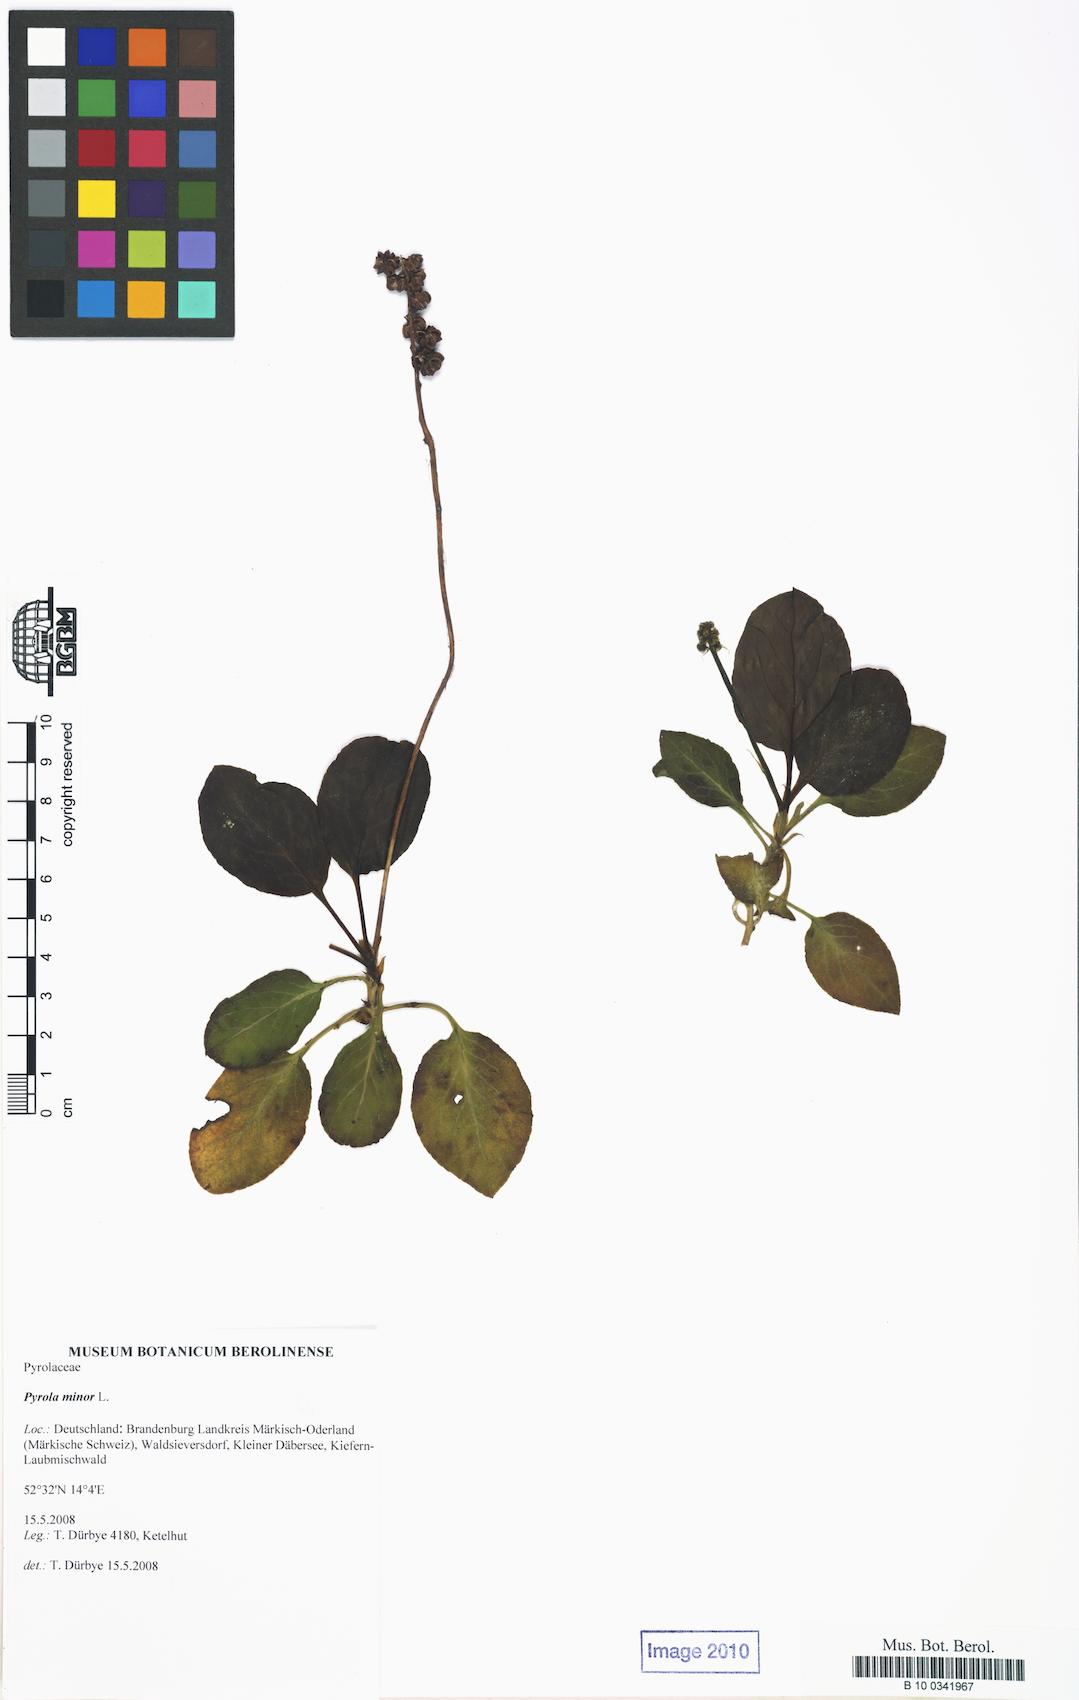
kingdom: Plantae
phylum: Tracheophyta
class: Magnoliopsida
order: Ericales
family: Ericaceae
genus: Pyrola
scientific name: Pyrola minor
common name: Common wintergreen
